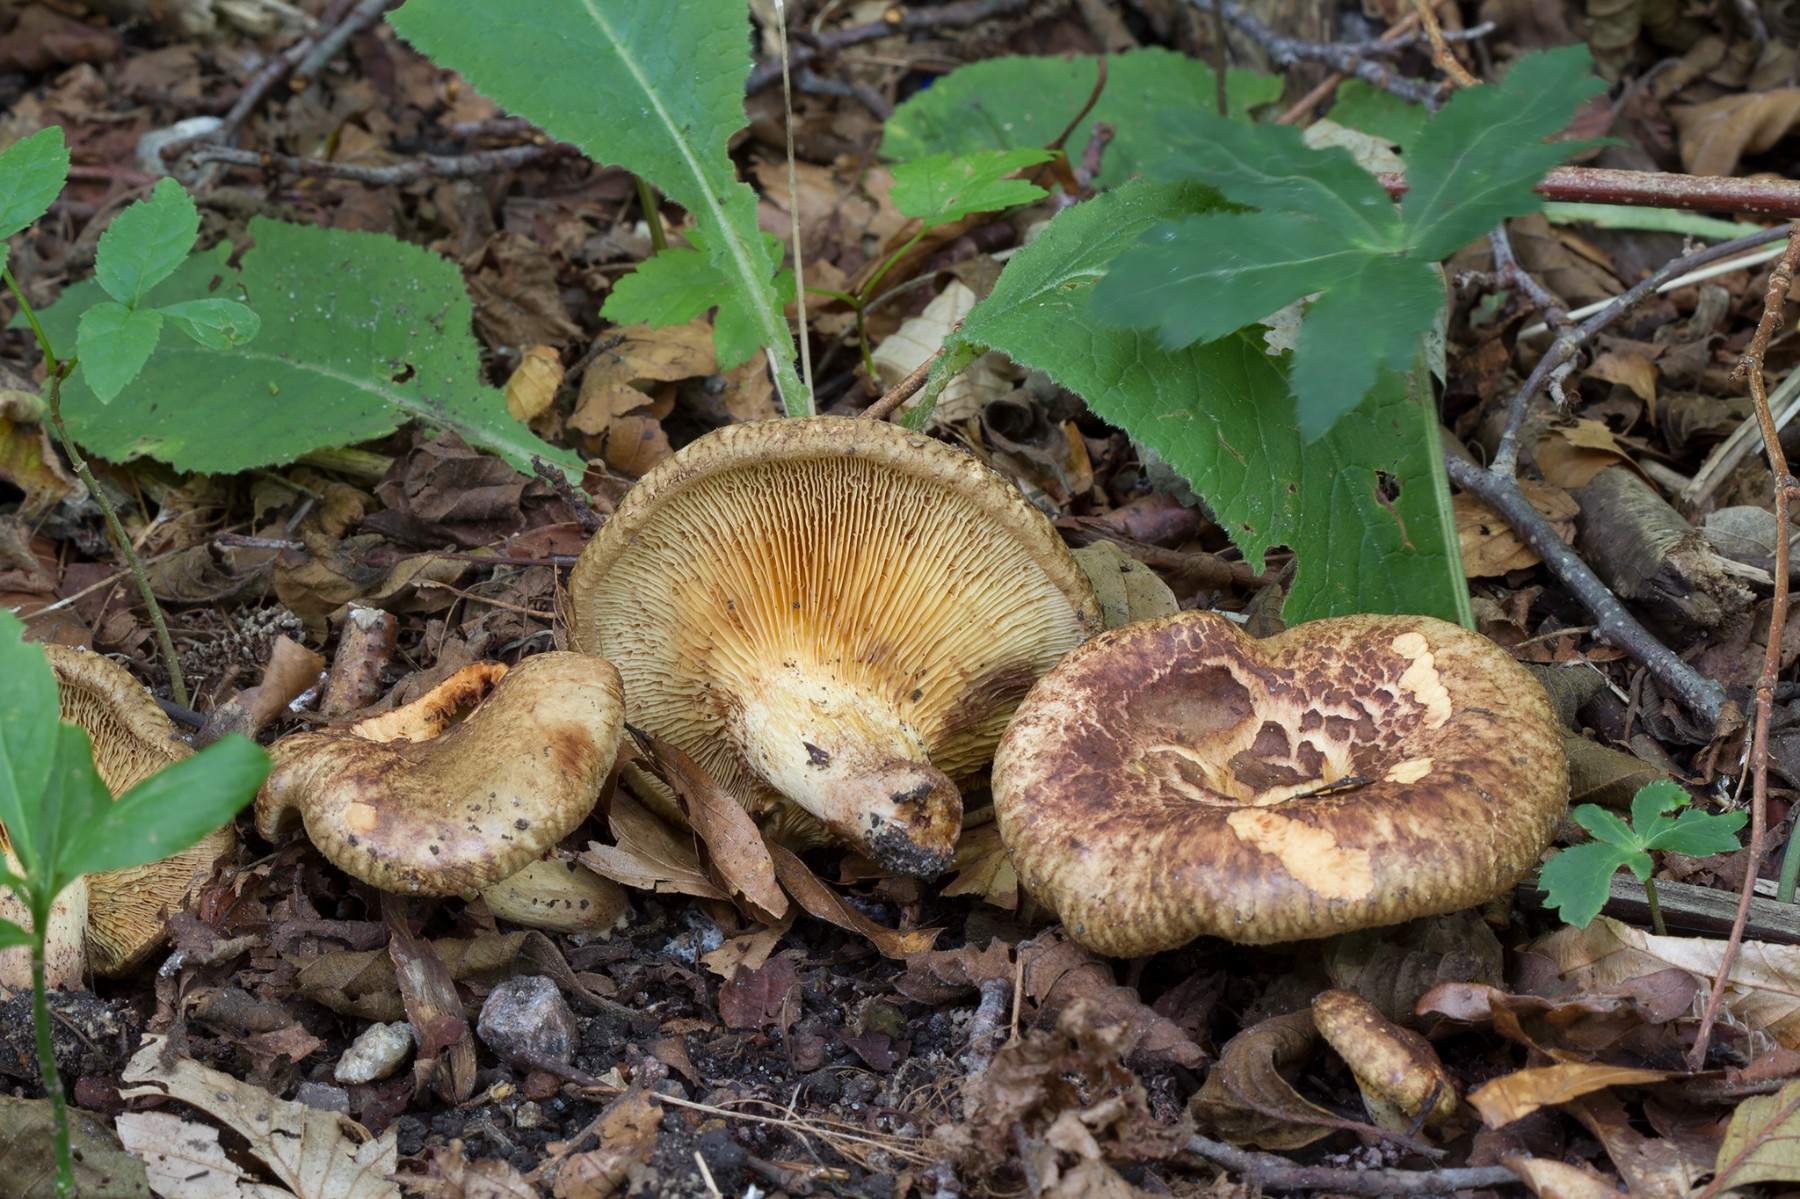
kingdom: Fungi
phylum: Basidiomycota
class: Agaricomycetes
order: Boletales
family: Paxillaceae
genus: Paxillus
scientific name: Paxillus olivellus
